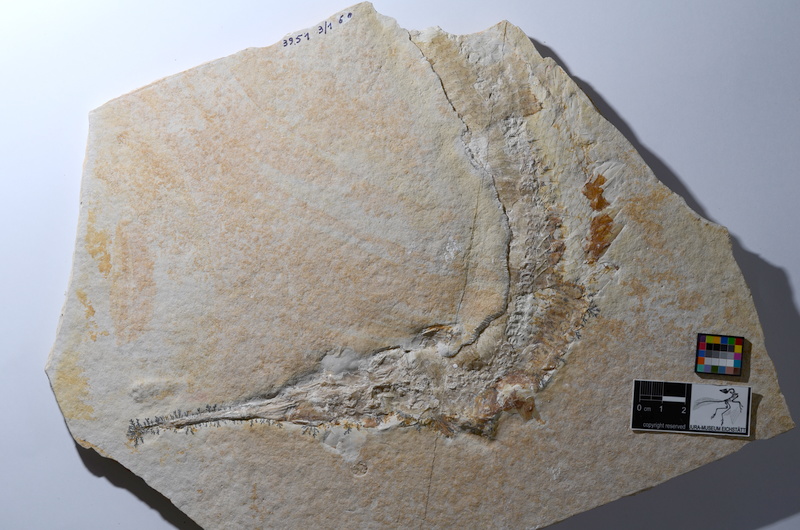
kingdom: Animalia
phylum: Chordata
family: Aspidorhynchidae
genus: Aspidorhynchus
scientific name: Aspidorhynchus acutirostris
